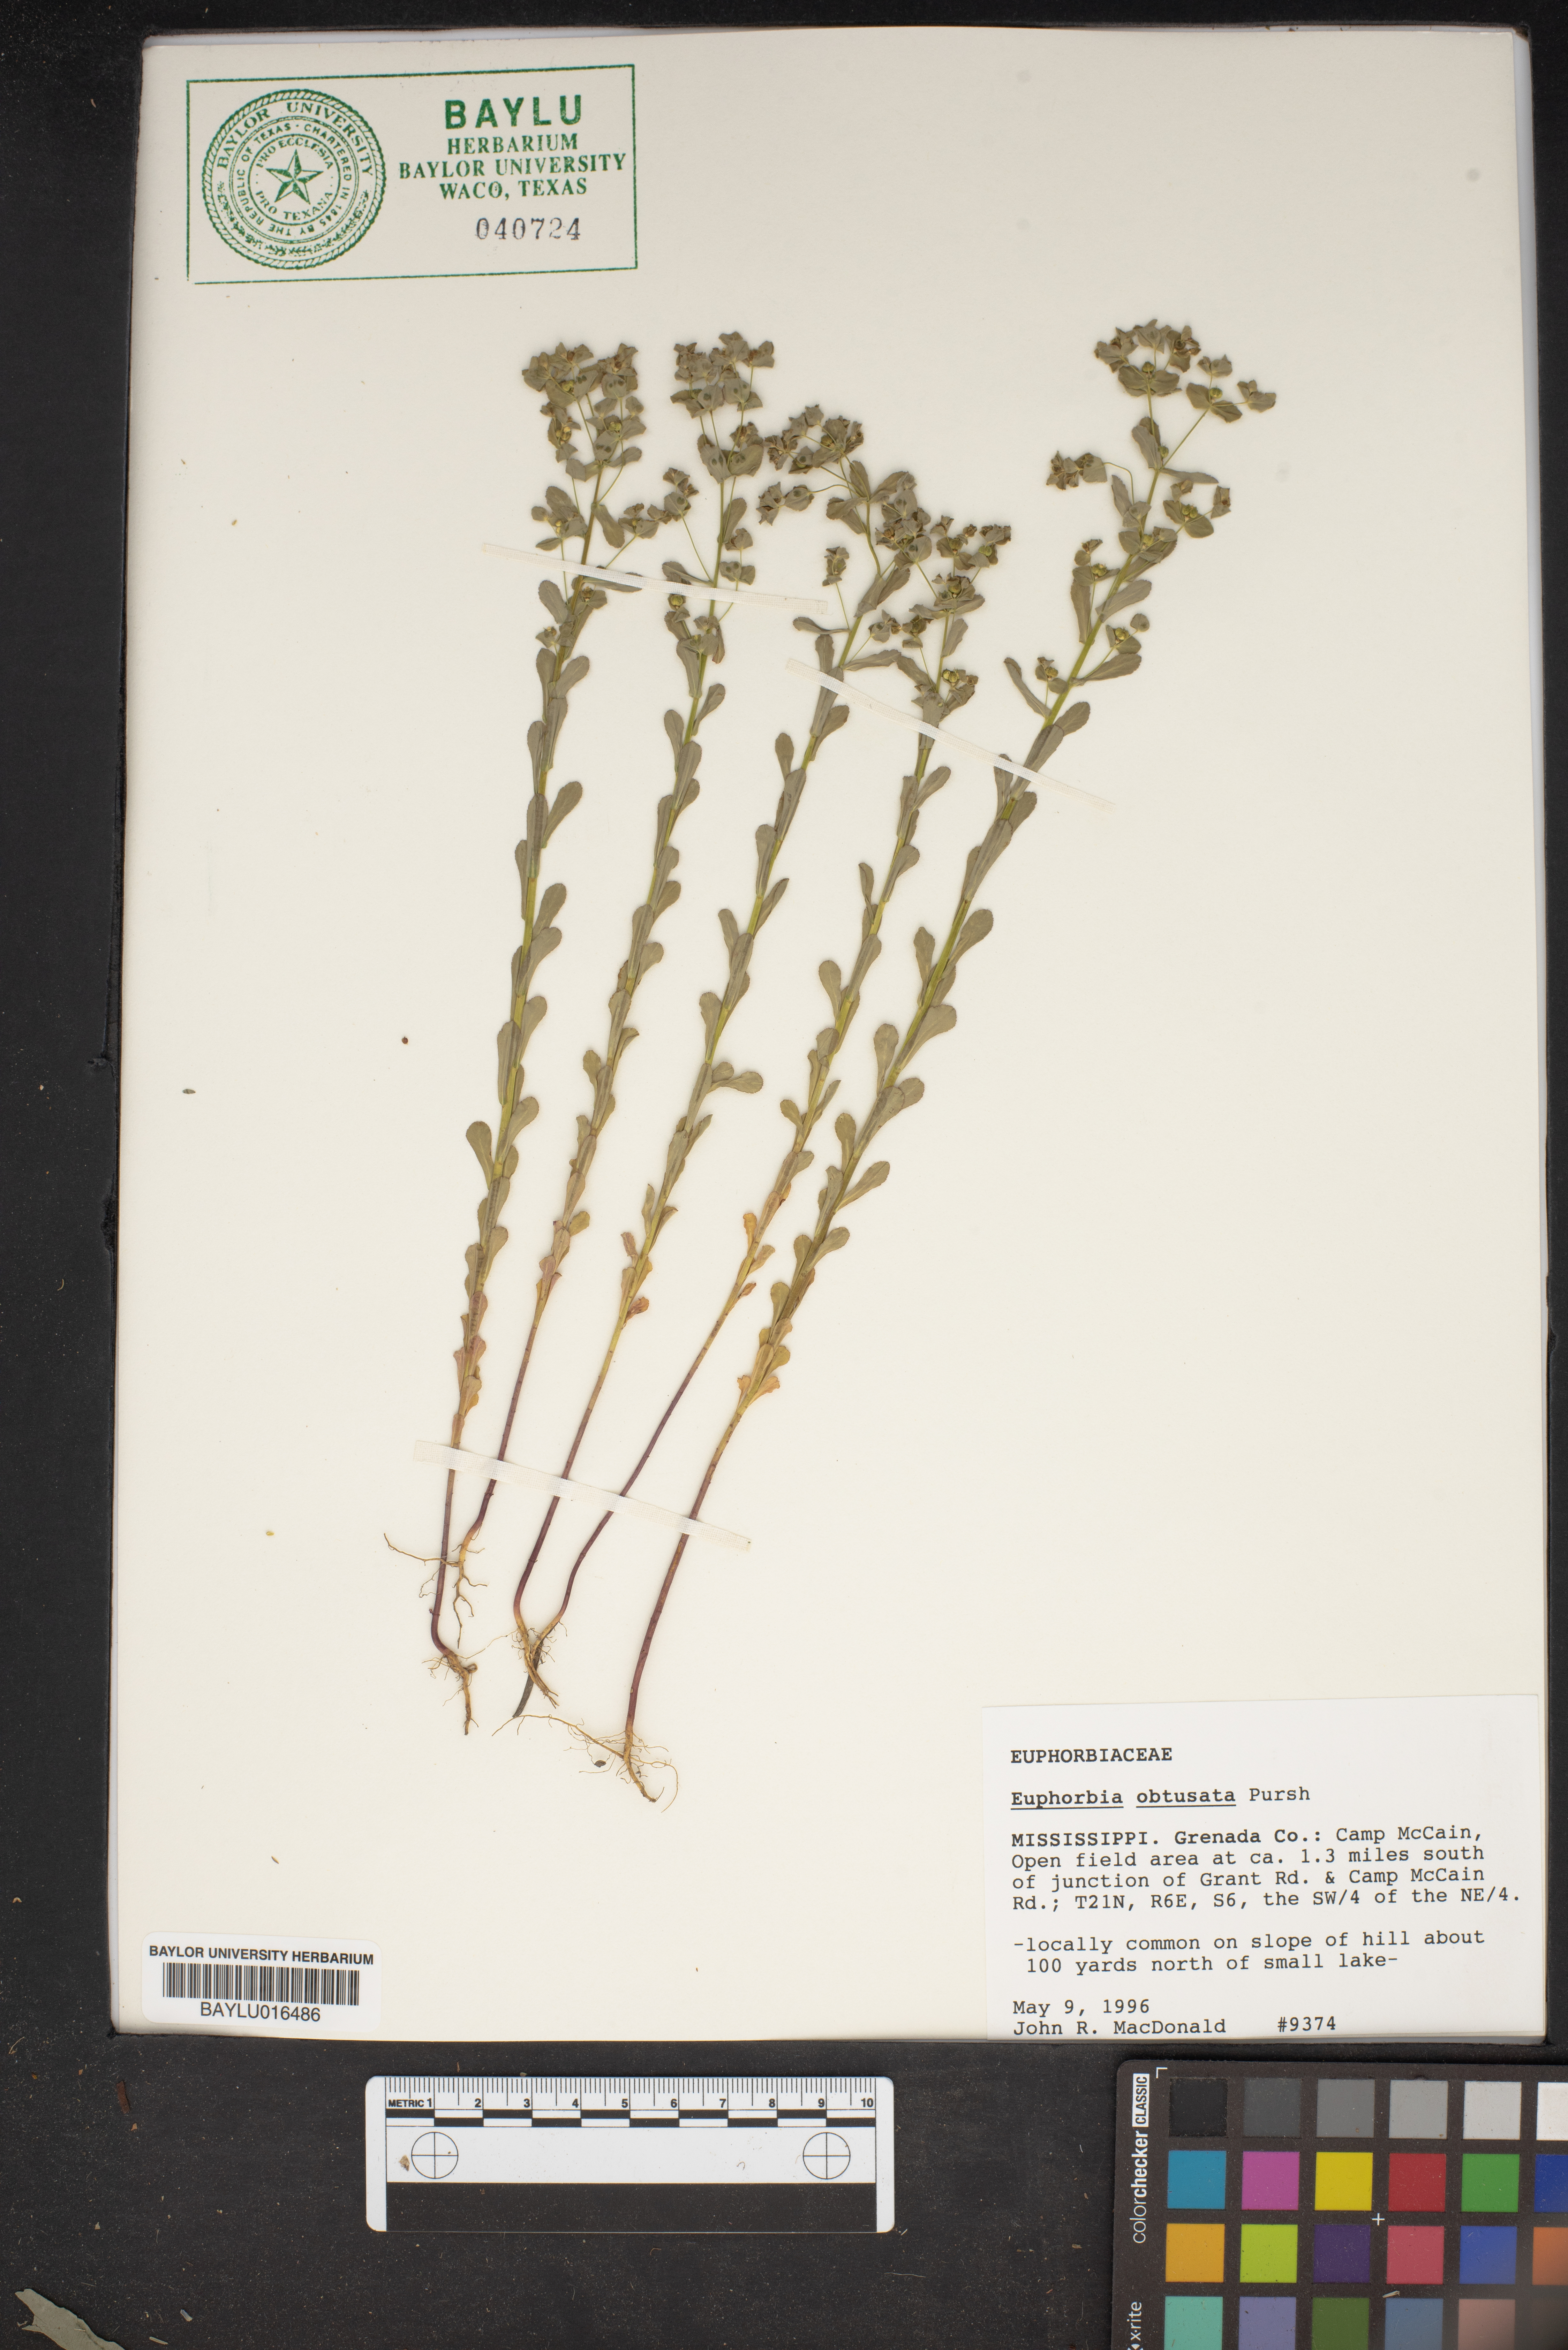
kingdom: Plantae
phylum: Tracheophyta
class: Magnoliopsida
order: Malpighiales
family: Euphorbiaceae
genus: Euphorbia
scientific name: Euphorbia spathulata
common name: Blunt spurge
